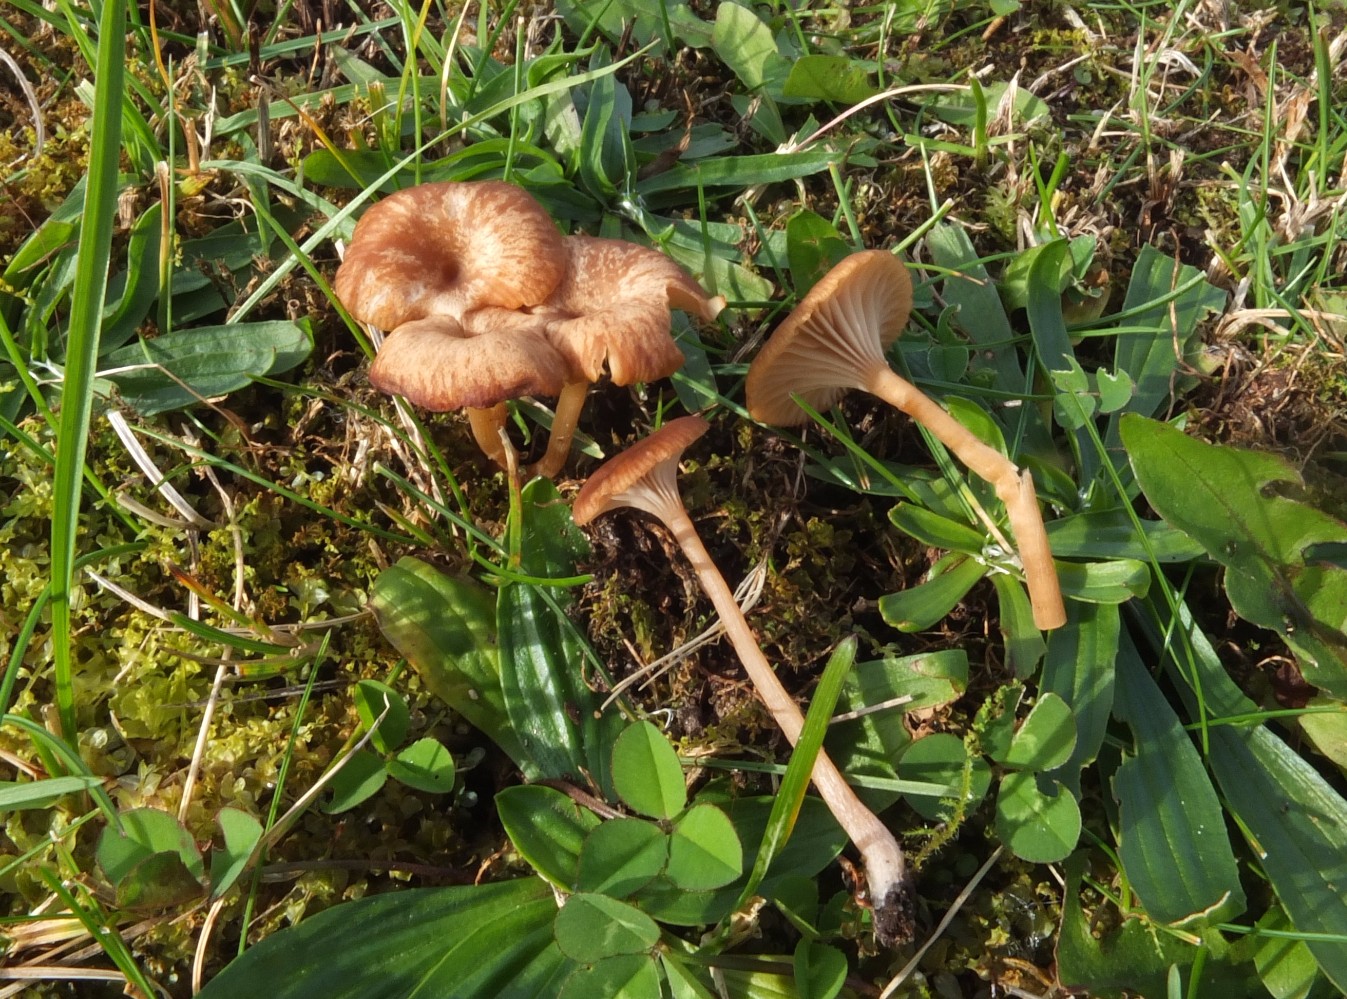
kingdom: Fungi
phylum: Basidiomycota
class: Agaricomycetes
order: Agaricales
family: Tricholomataceae
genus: Omphalina
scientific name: Omphalina pyxidata
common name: rødbrun navlehat
